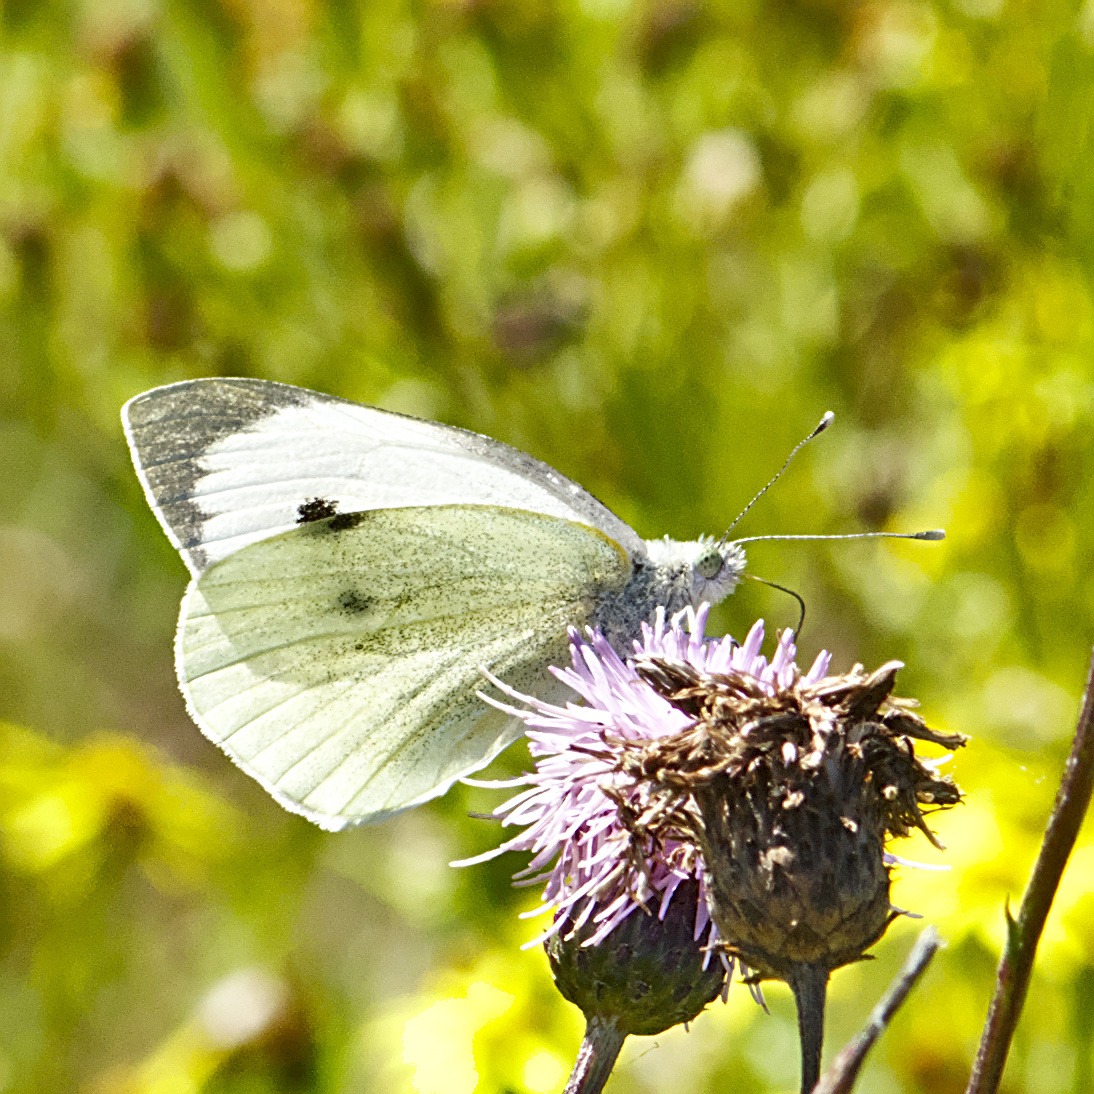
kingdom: Animalia
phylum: Arthropoda
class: Insecta
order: Lepidoptera
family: Pieridae
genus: Pieris
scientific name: Pieris brassicae
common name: Stor kålsommerfugl
